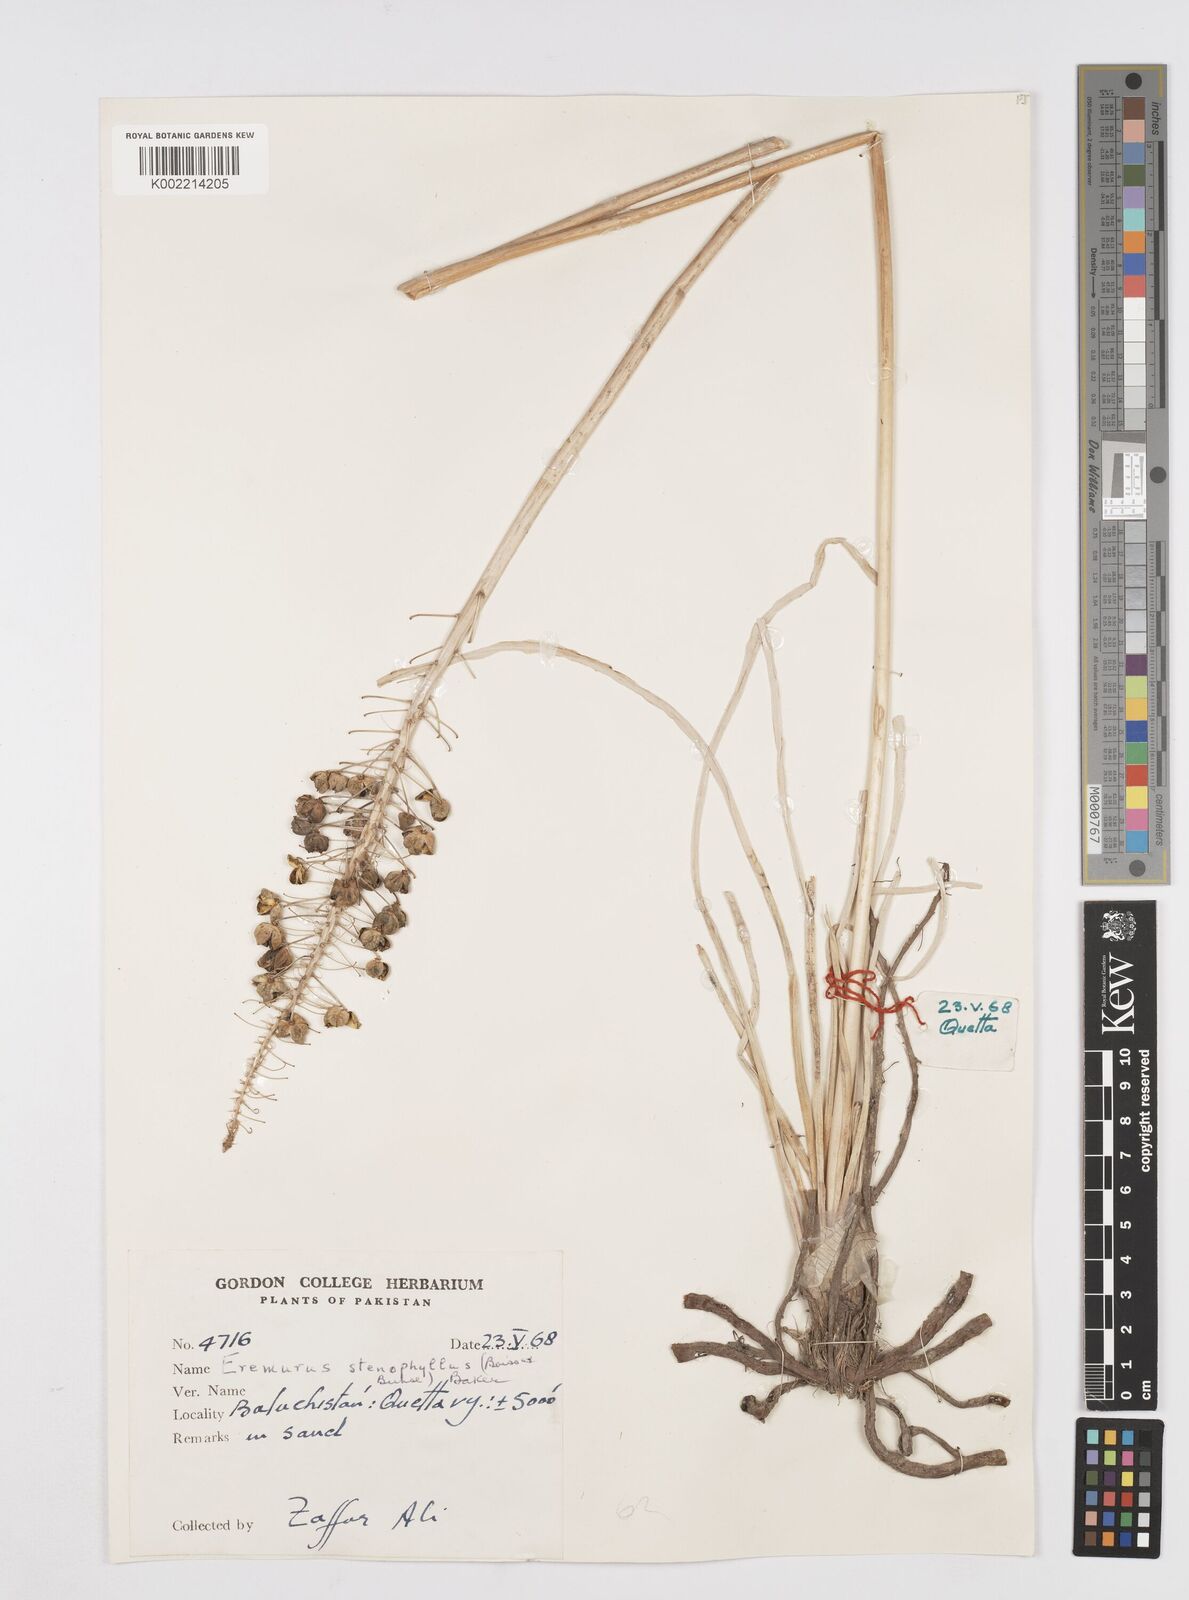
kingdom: Plantae
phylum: Tracheophyta
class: Liliopsida
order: Asparagales
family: Asphodelaceae
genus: Eremurus
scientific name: Eremurus stenophyllus
